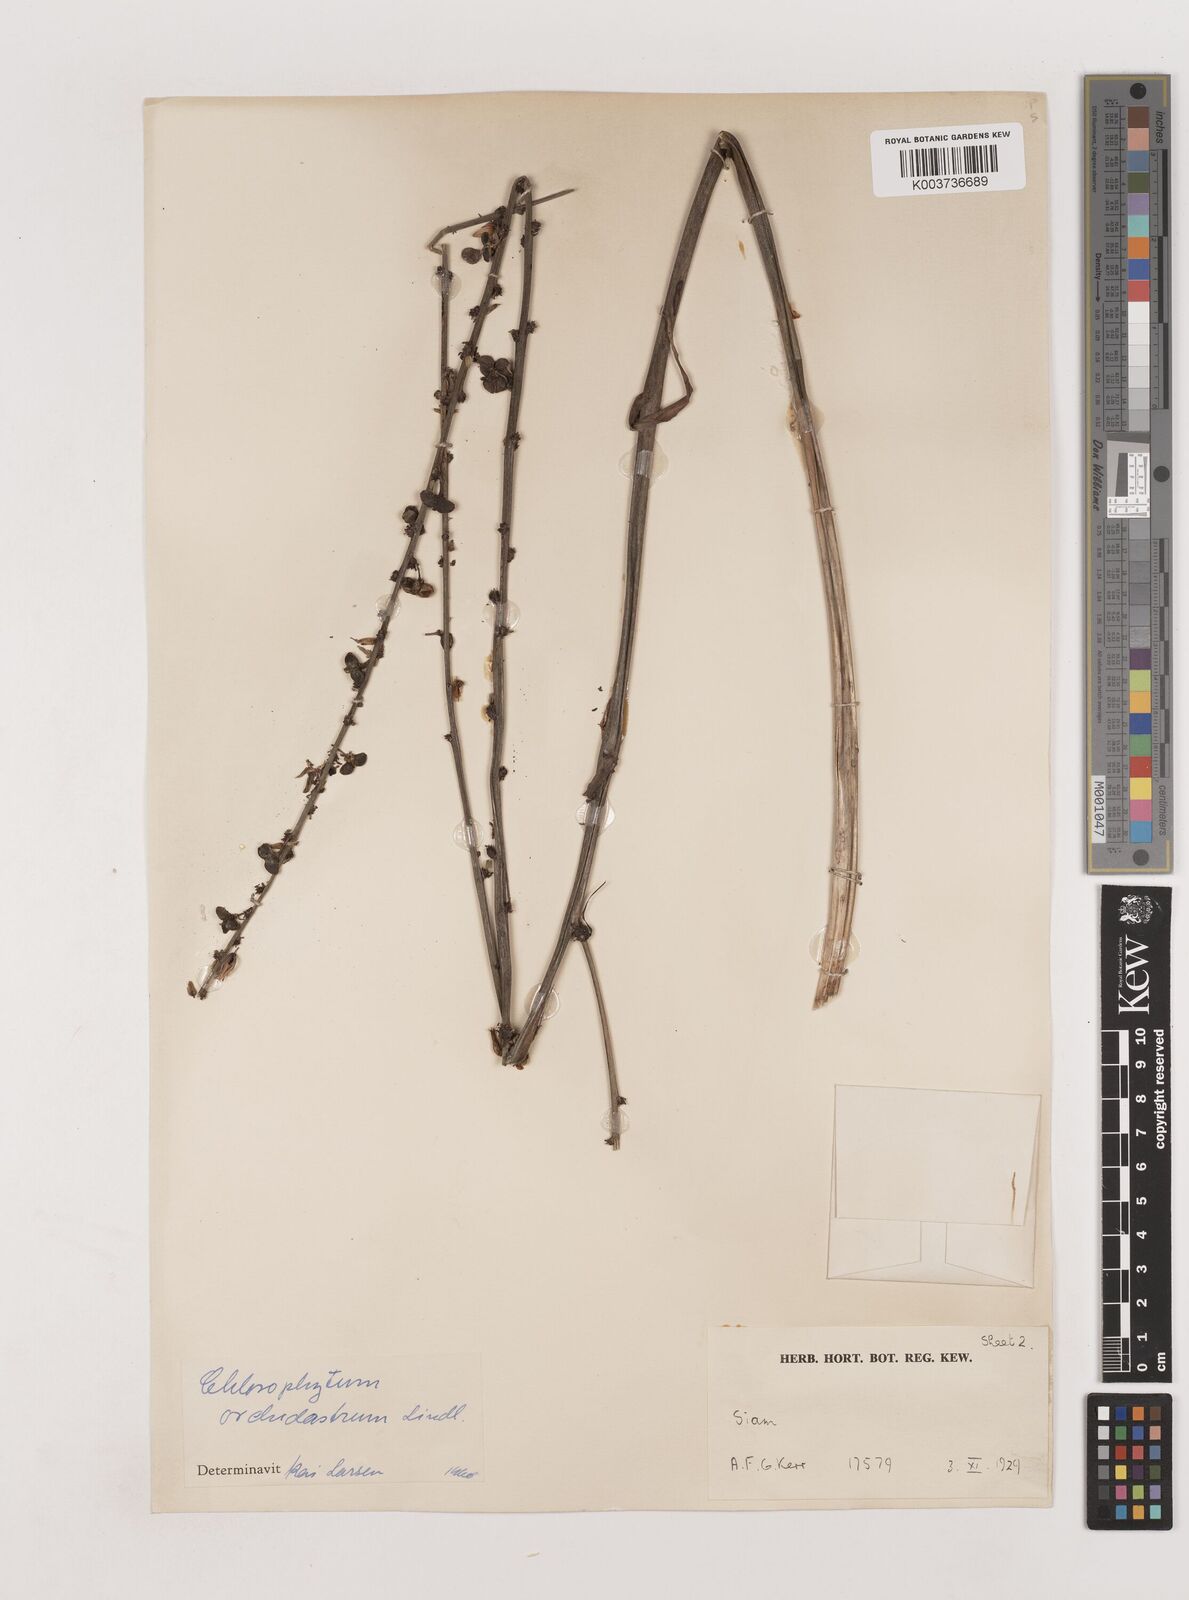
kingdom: Plantae
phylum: Tracheophyta
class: Liliopsida
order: Asparagales
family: Asparagaceae
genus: Chlorophytum
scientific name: Chlorophytum
